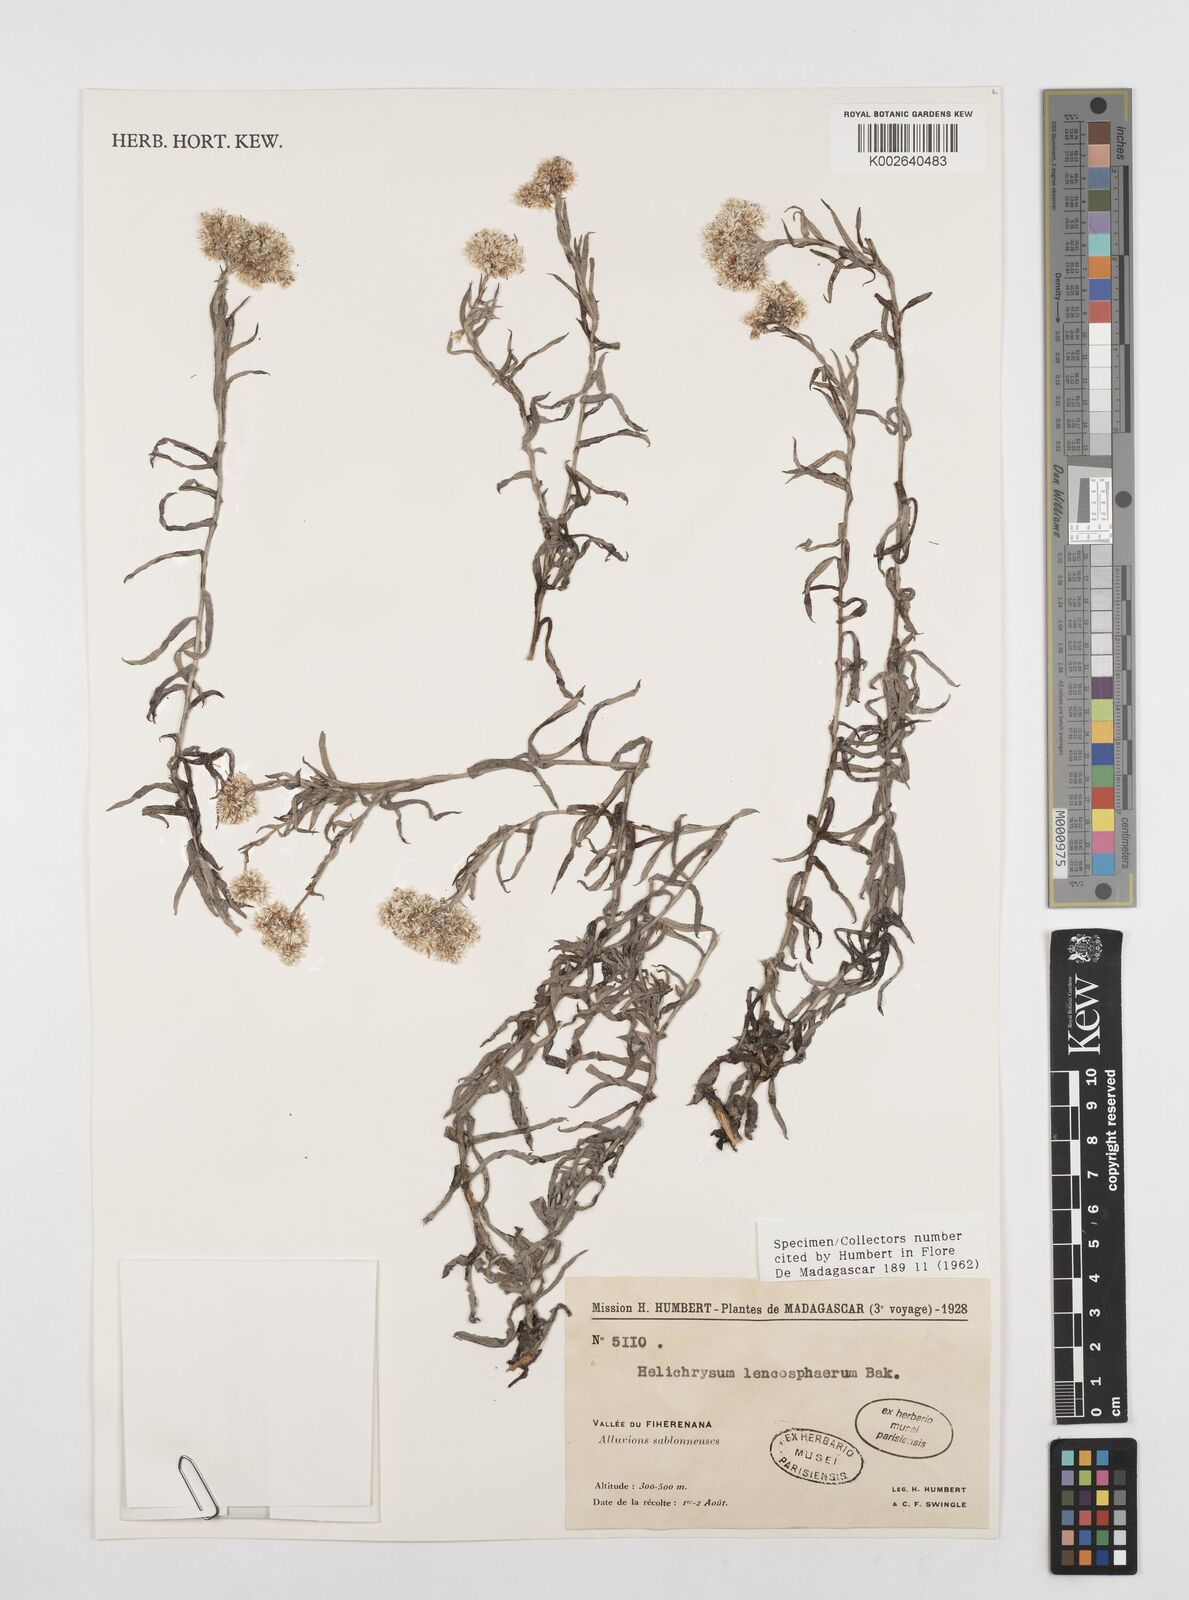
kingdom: Plantae
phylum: Tracheophyta
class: Magnoliopsida
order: Asterales
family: Asteraceae
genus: Helichrysum
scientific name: Helichrysum leucosphaerum
